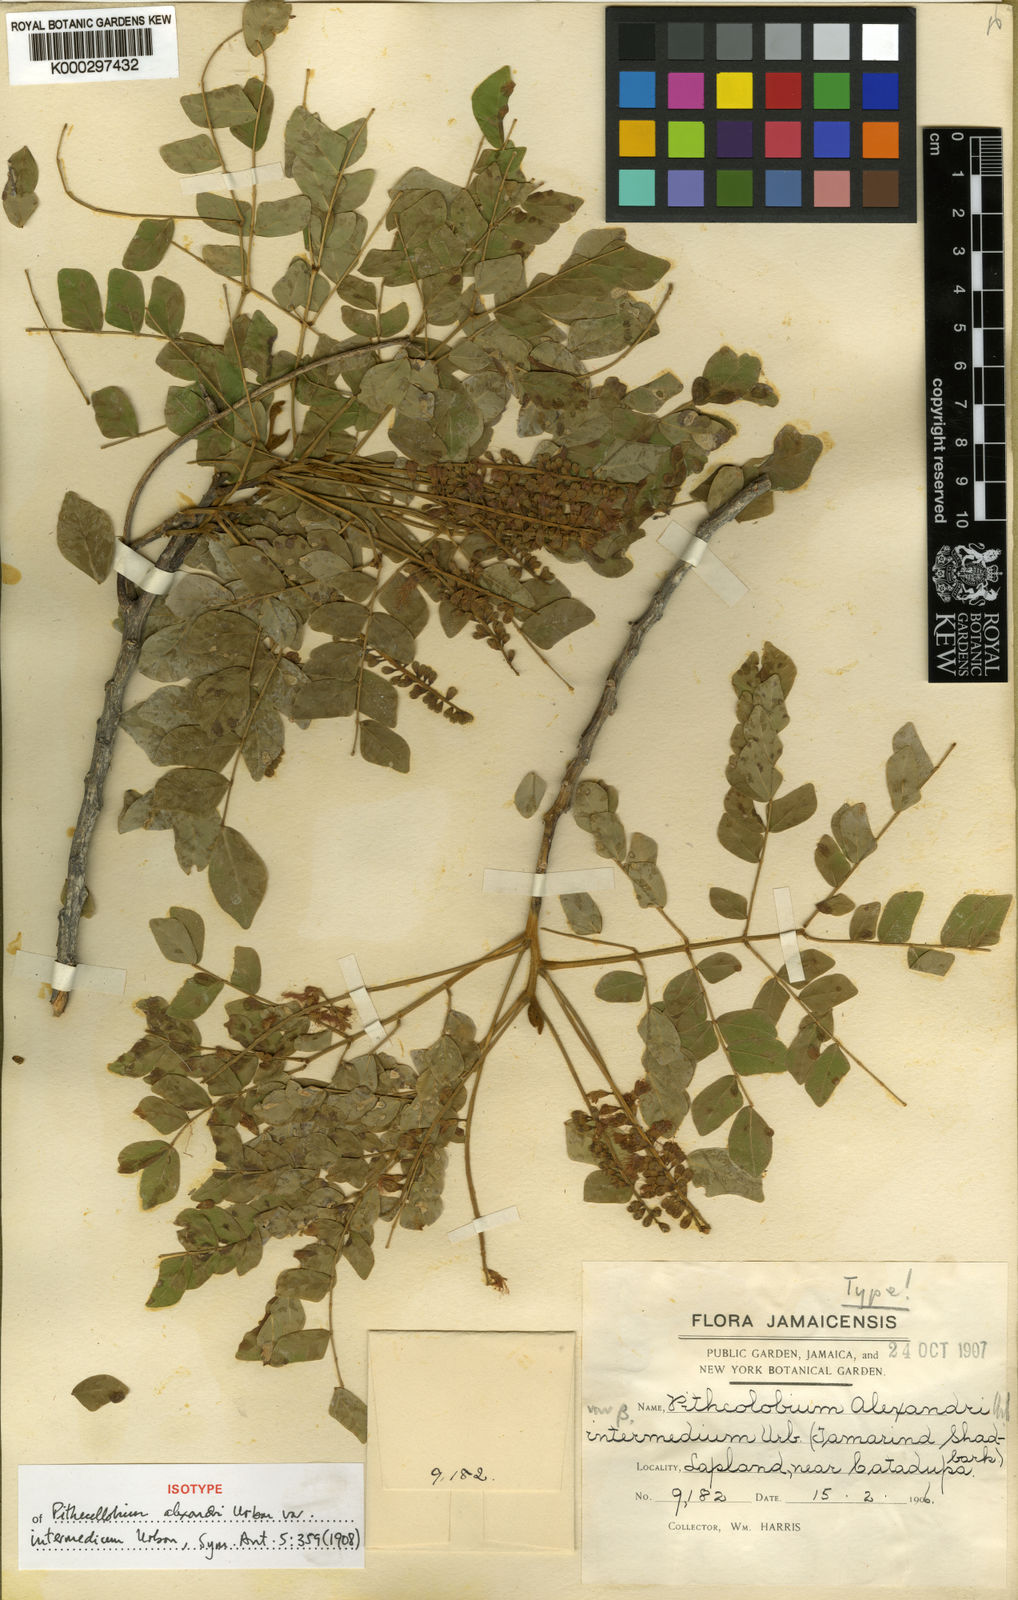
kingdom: Plantae
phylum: Tracheophyta
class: Magnoliopsida
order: Fabales
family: Fabaceae
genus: Jupunba
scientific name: Jupunba alexandri
